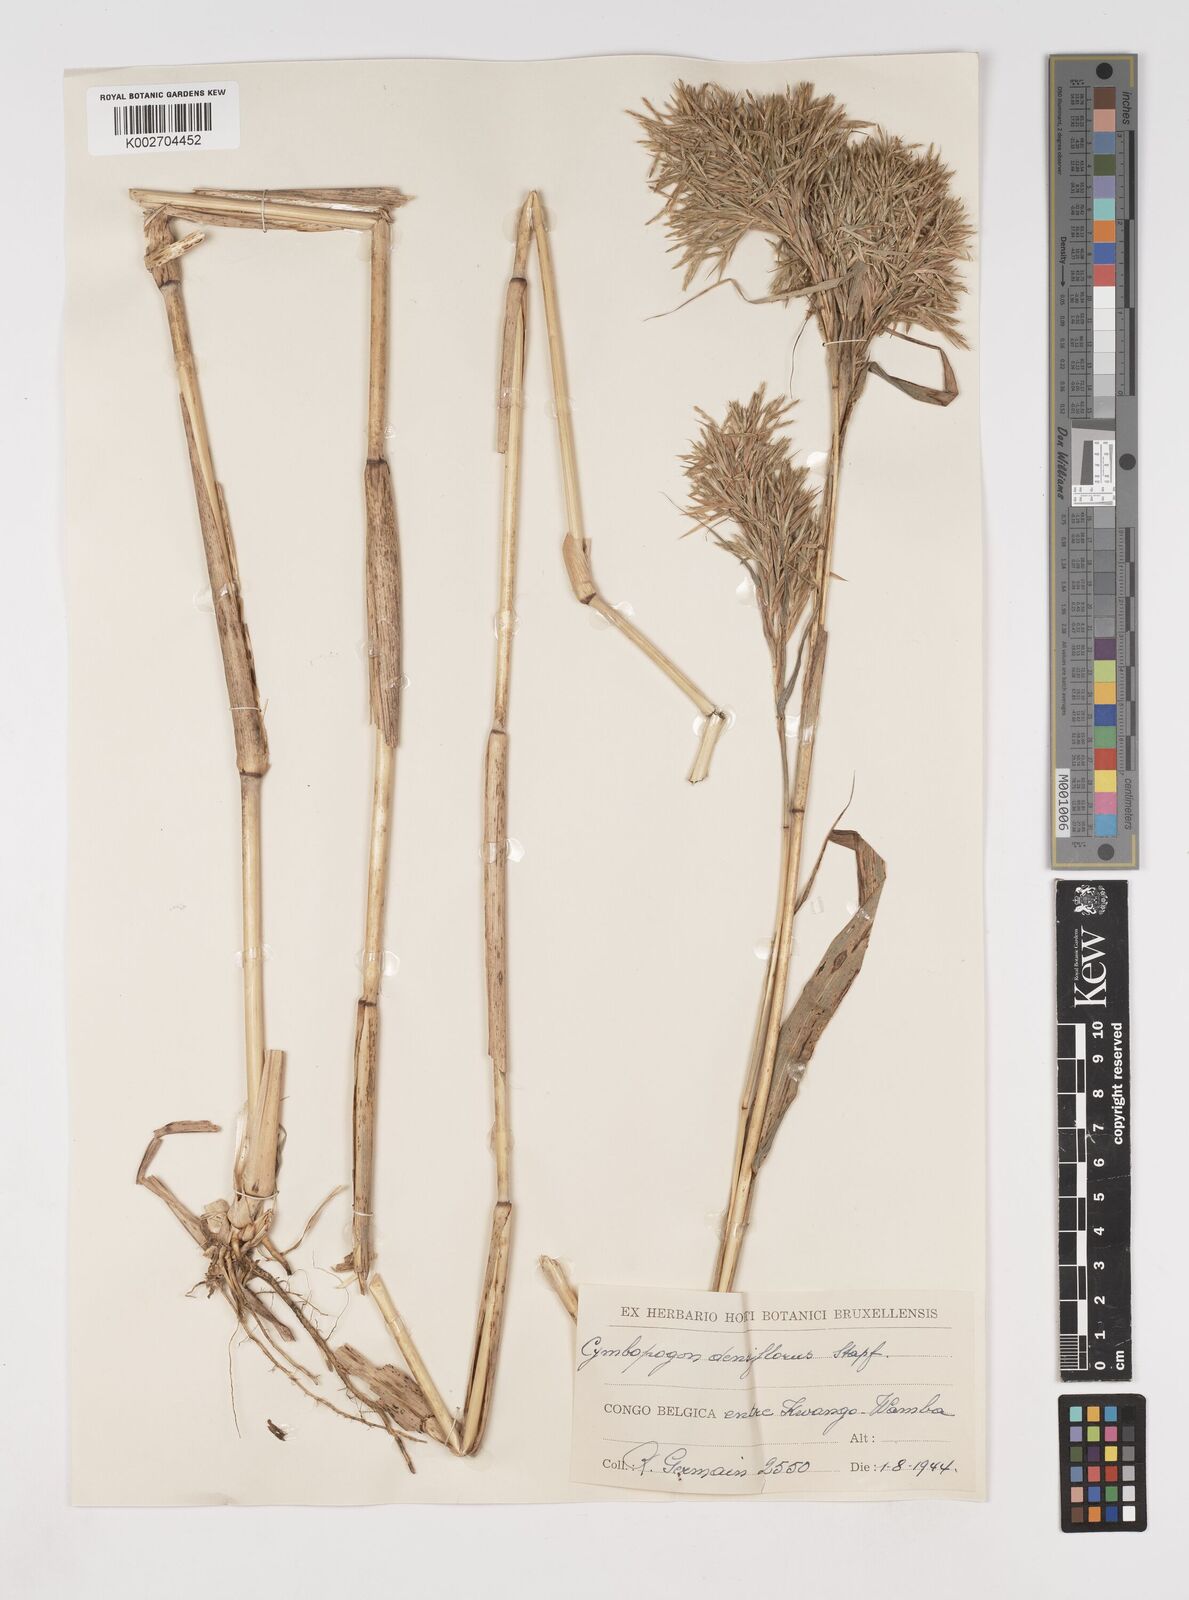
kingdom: Plantae
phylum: Tracheophyta
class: Liliopsida
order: Poales
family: Poaceae
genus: Cymbopogon
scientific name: Cymbopogon densiflorus
